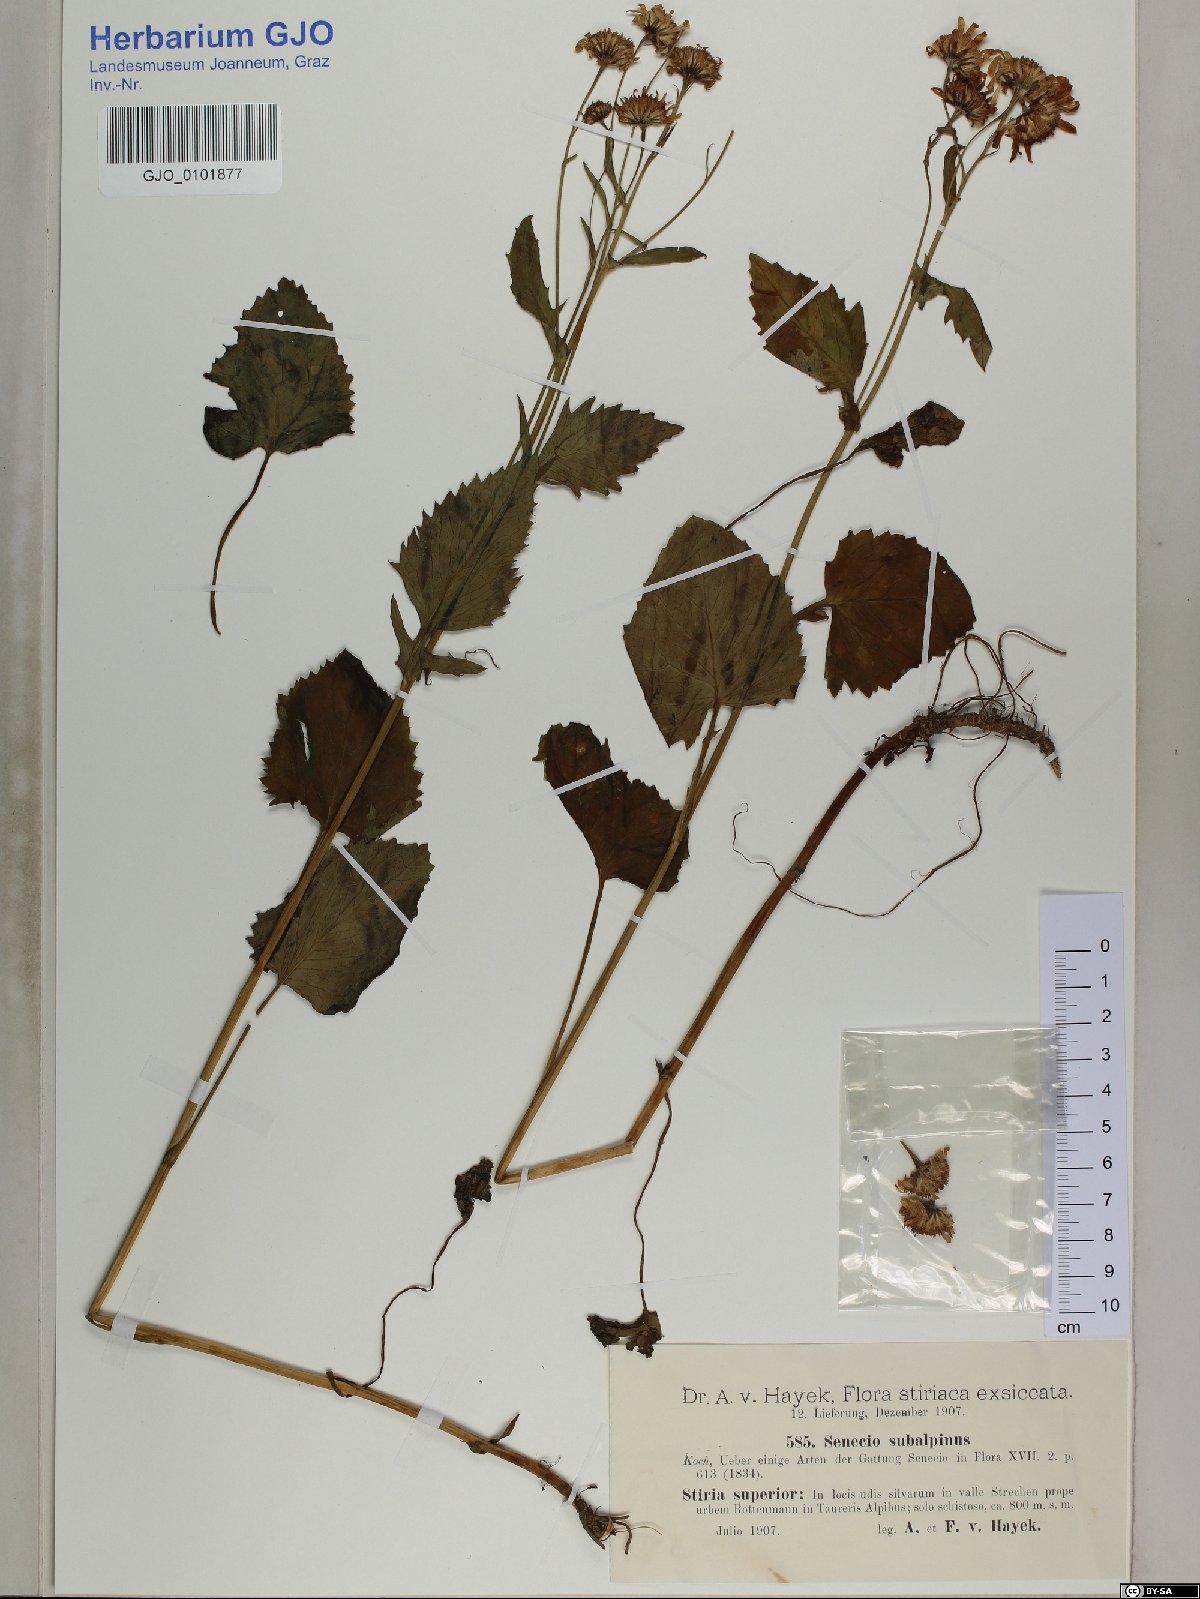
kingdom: Plantae
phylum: Tracheophyta
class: Magnoliopsida
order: Asterales
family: Asteraceae
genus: Jacobaea
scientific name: Jacobaea subalpina
